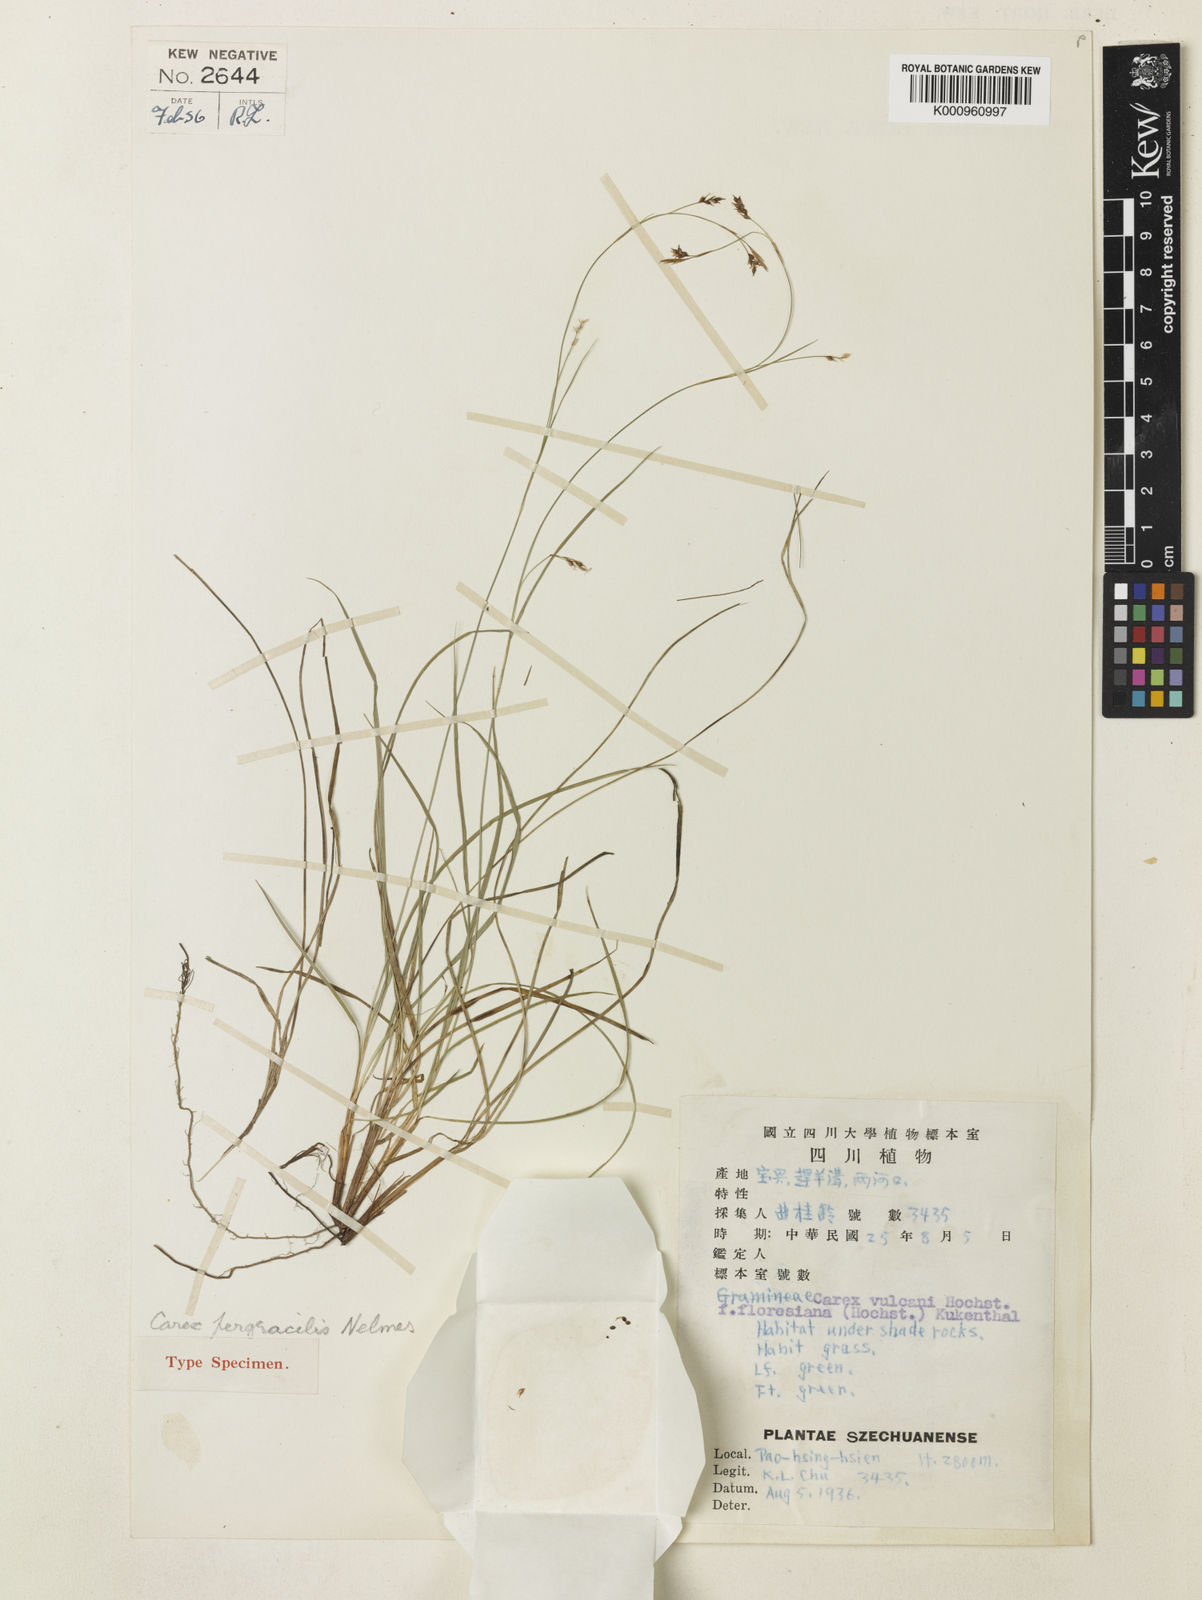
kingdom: Plantae
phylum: Tracheophyta
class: Liliopsida
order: Poales
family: Cyperaceae
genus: Carex
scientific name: Carex pergracilis
